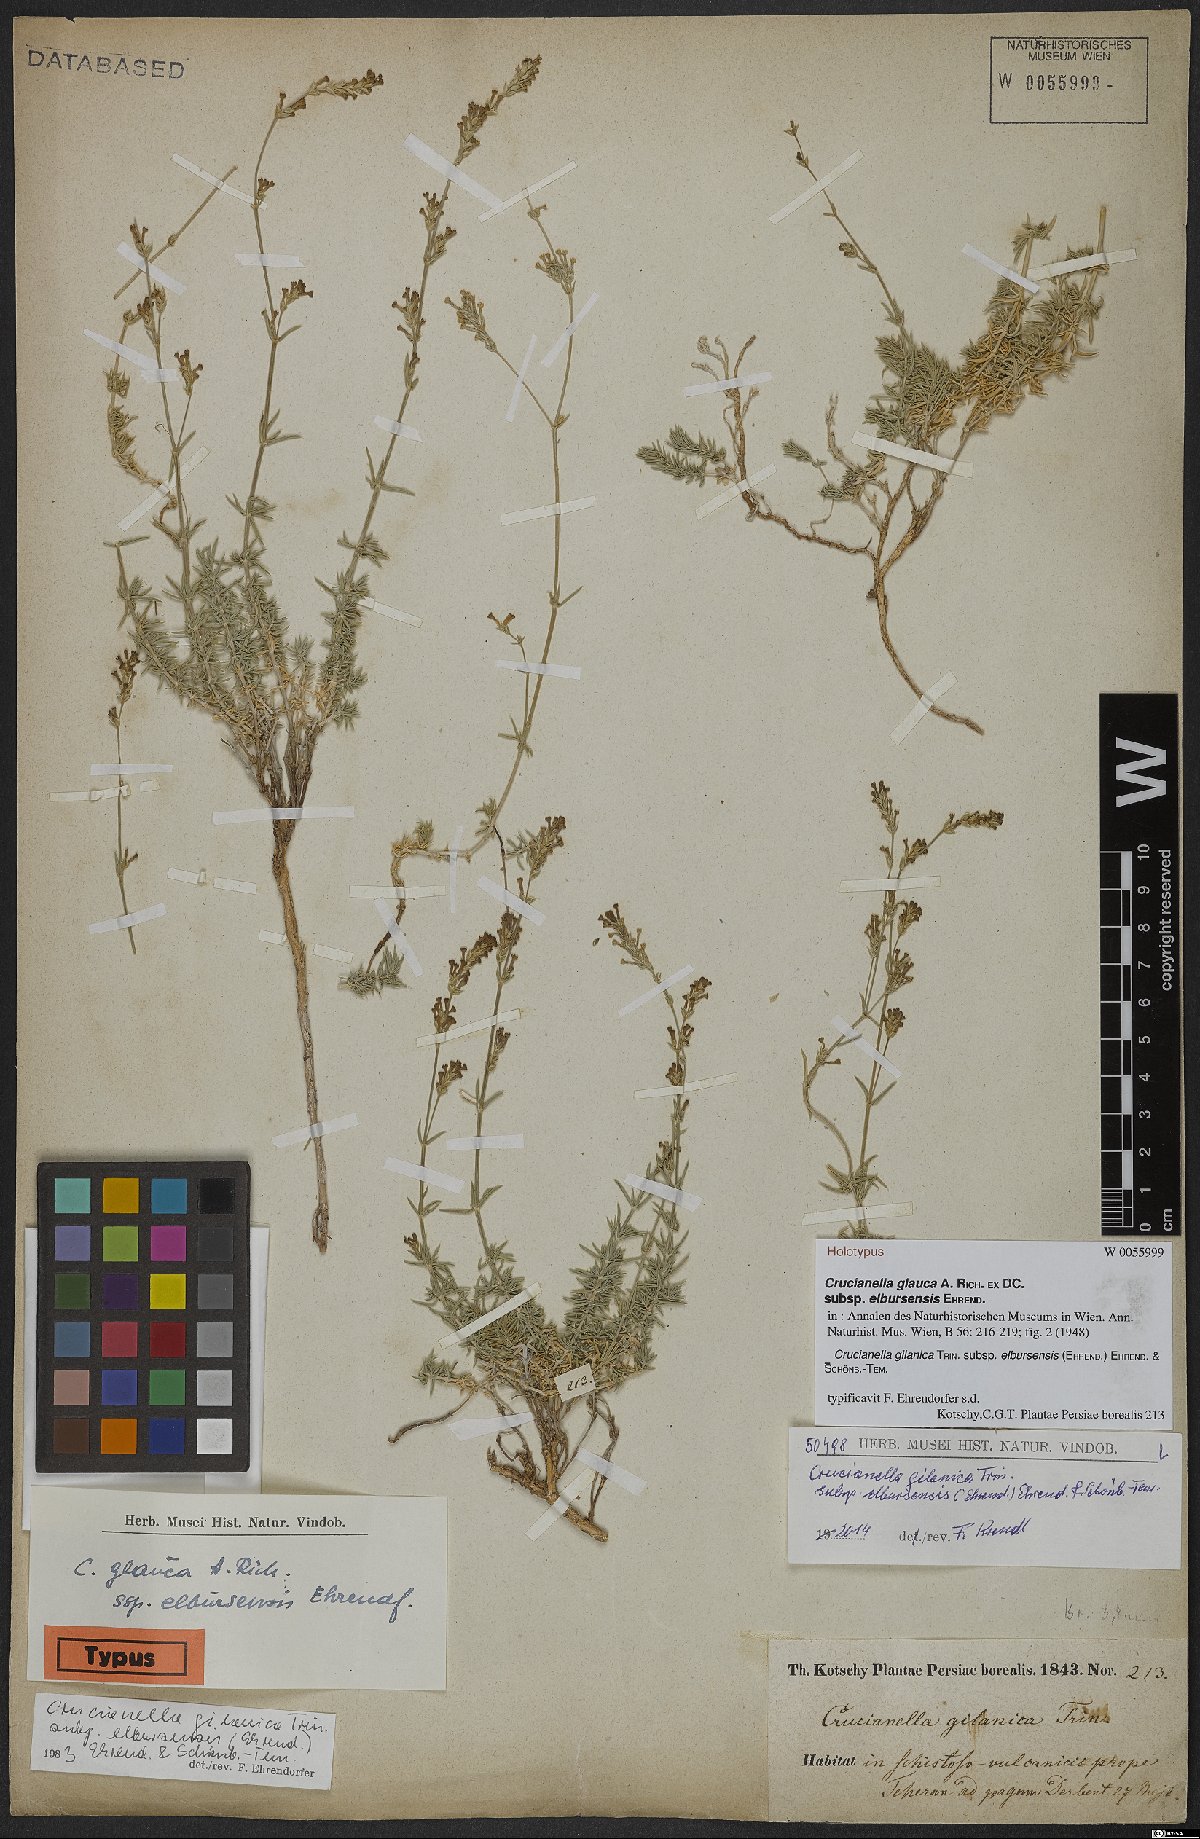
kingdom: Plantae
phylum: Tracheophyta
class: Magnoliopsida
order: Gentianales
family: Rubiaceae
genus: Crucianella
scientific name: Crucianella gilanica
